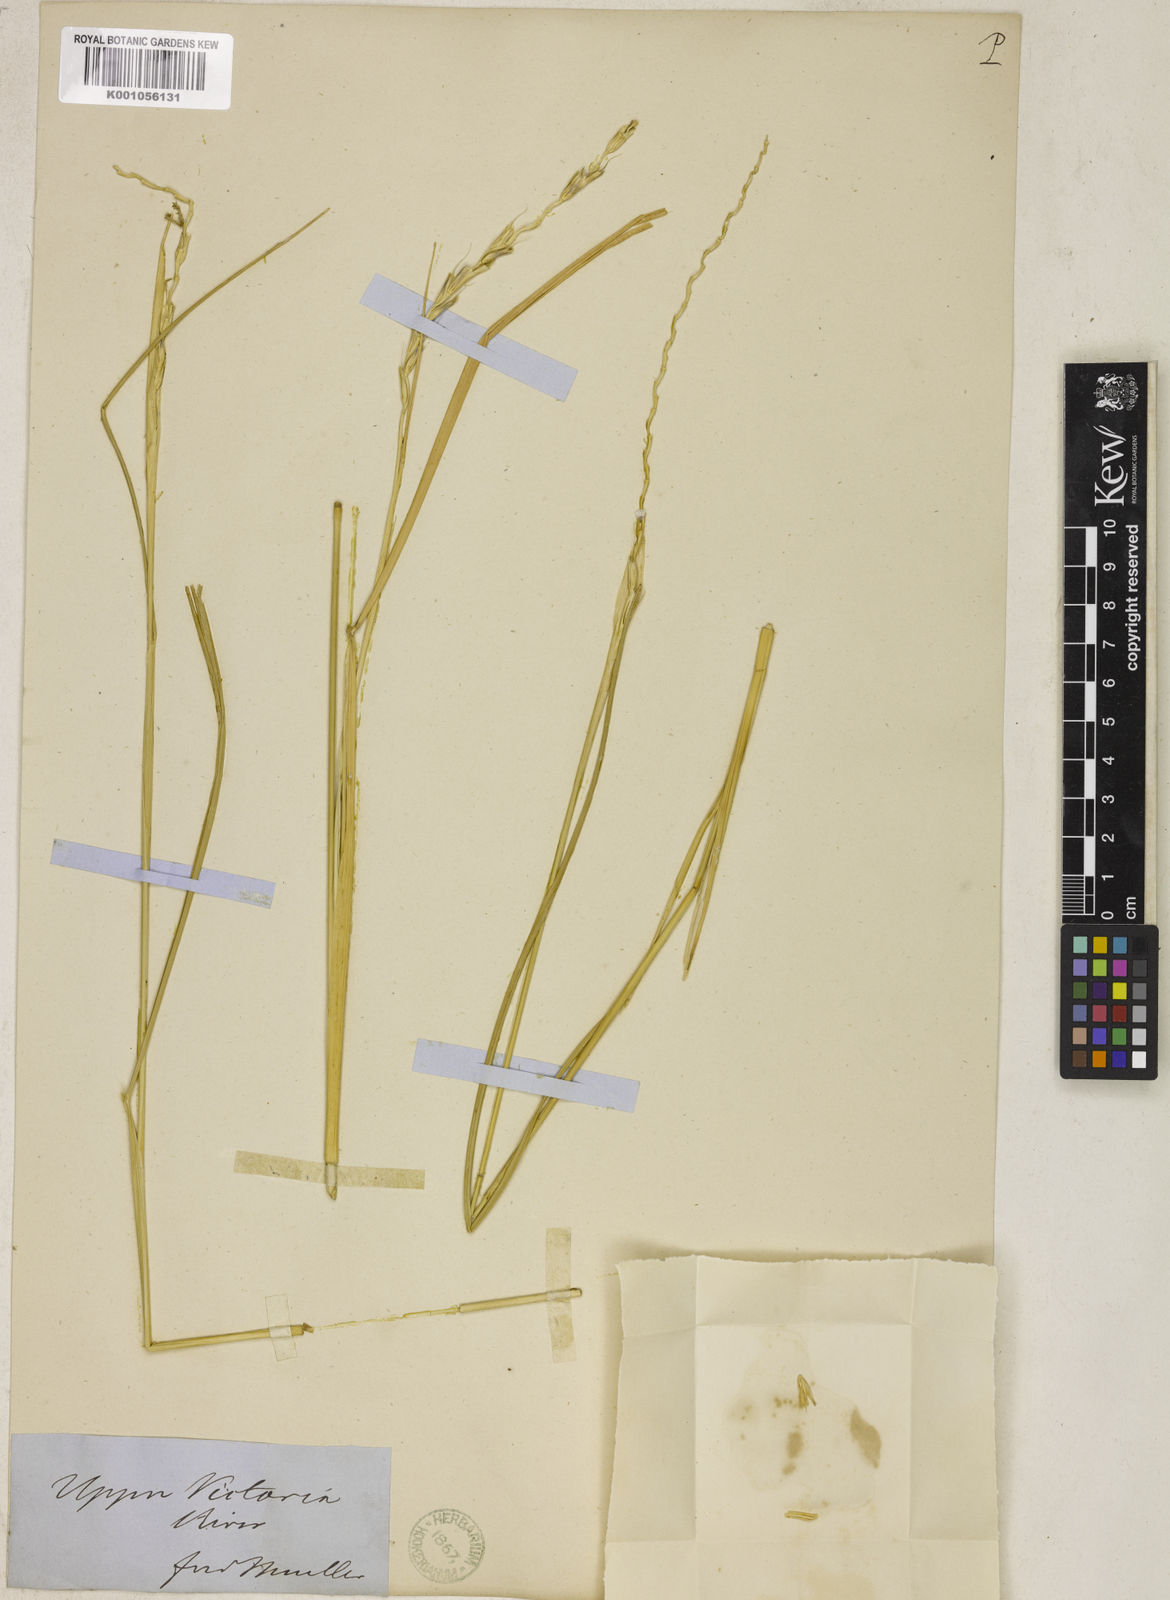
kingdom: Plantae
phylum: Tracheophyta
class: Liliopsida
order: Poales
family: Poaceae
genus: Cenchrus
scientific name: Cenchrus elymoides
